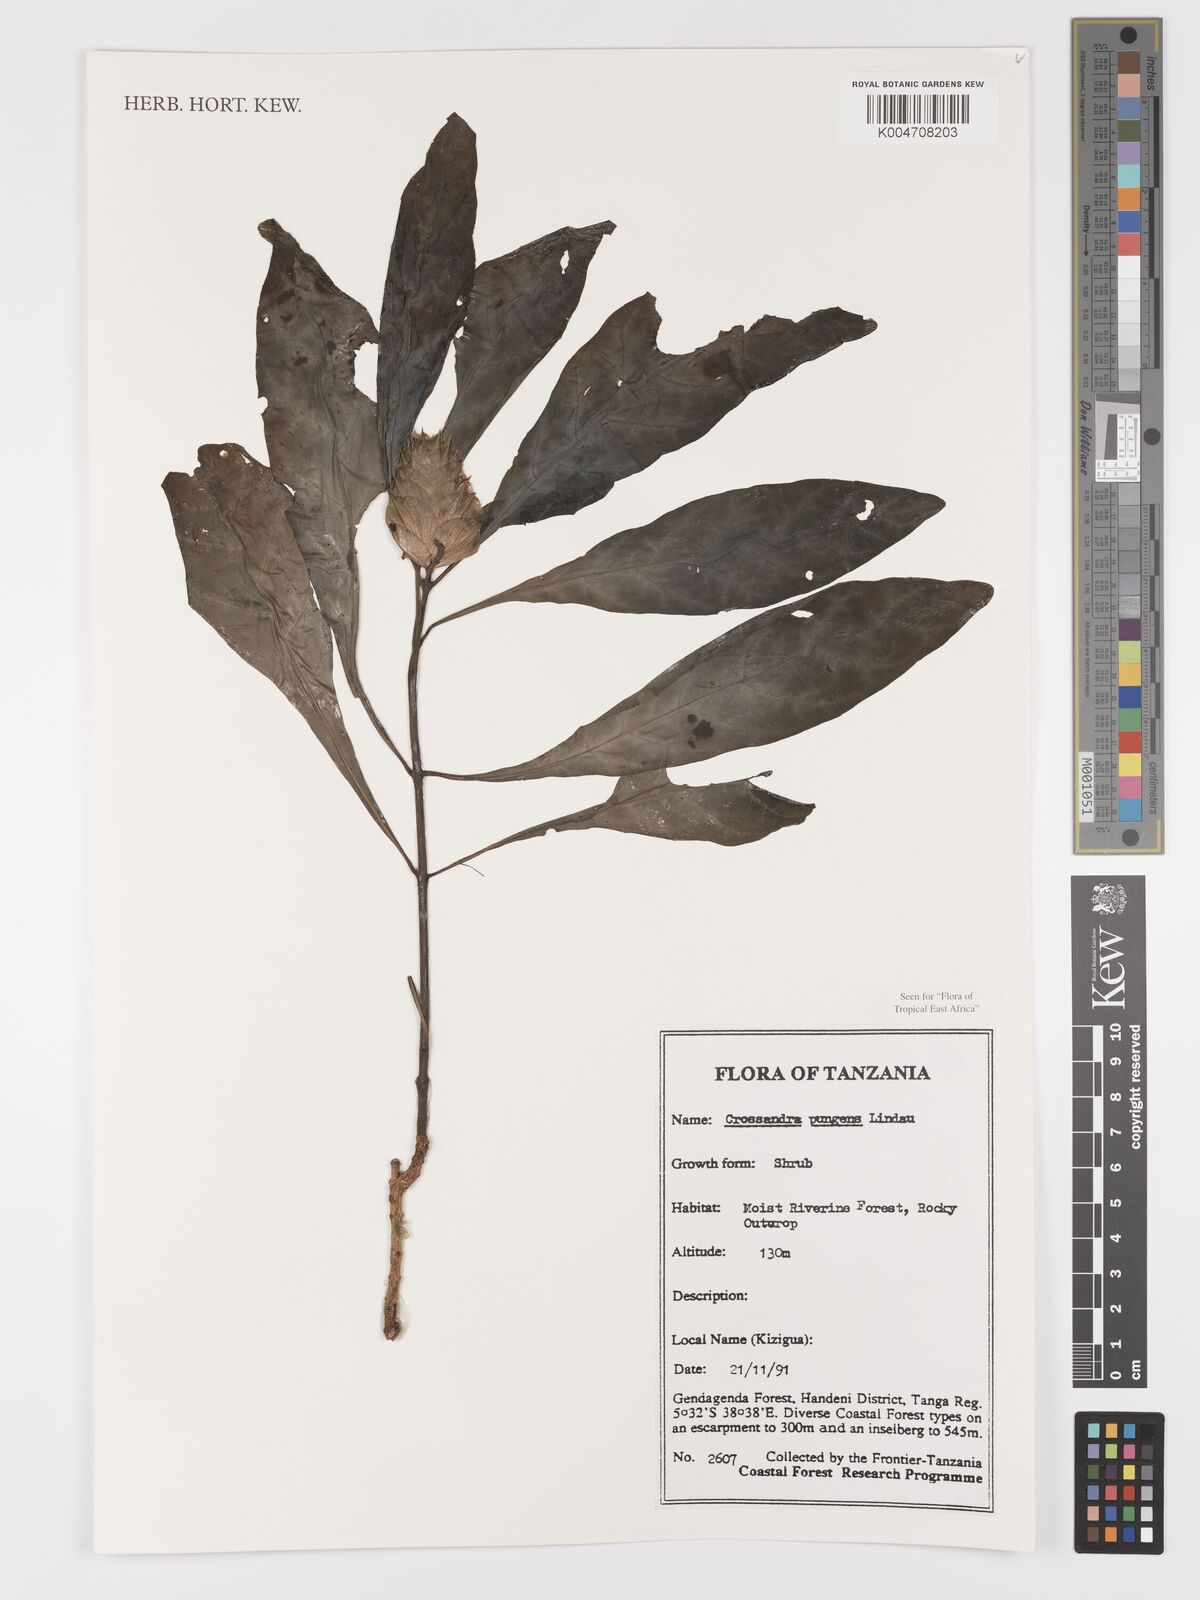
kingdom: Plantae
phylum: Tracheophyta
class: Magnoliopsida
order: Lamiales
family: Acanthaceae
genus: Crossandra
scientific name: Crossandra pungens
